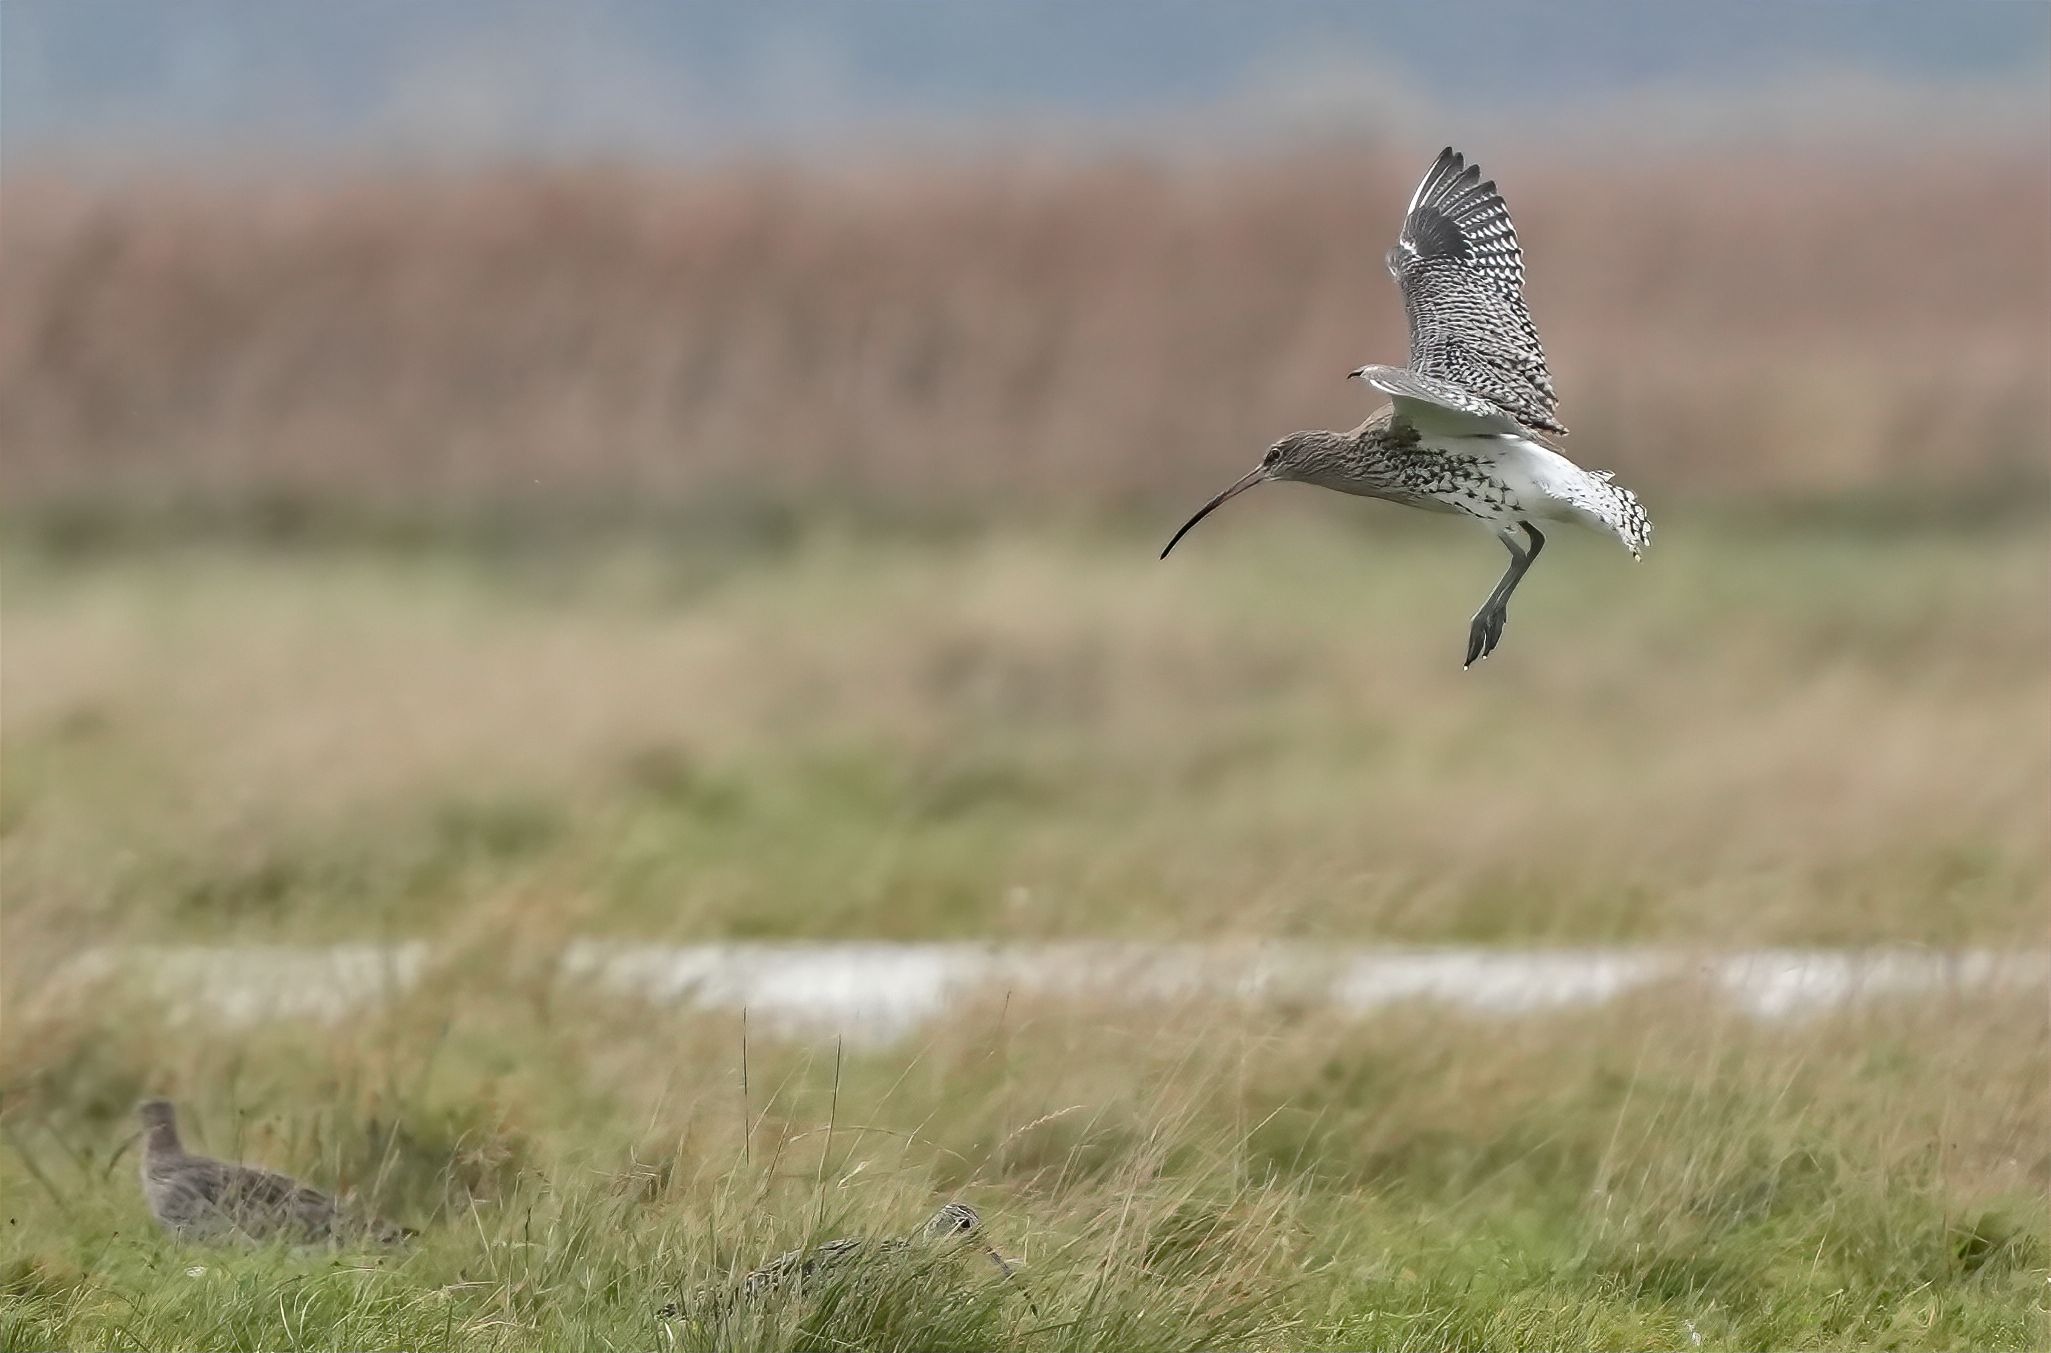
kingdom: Animalia
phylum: Chordata
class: Aves
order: Charadriiformes
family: Scolopacidae
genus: Numenius
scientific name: Numenius arquata
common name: Storspove
